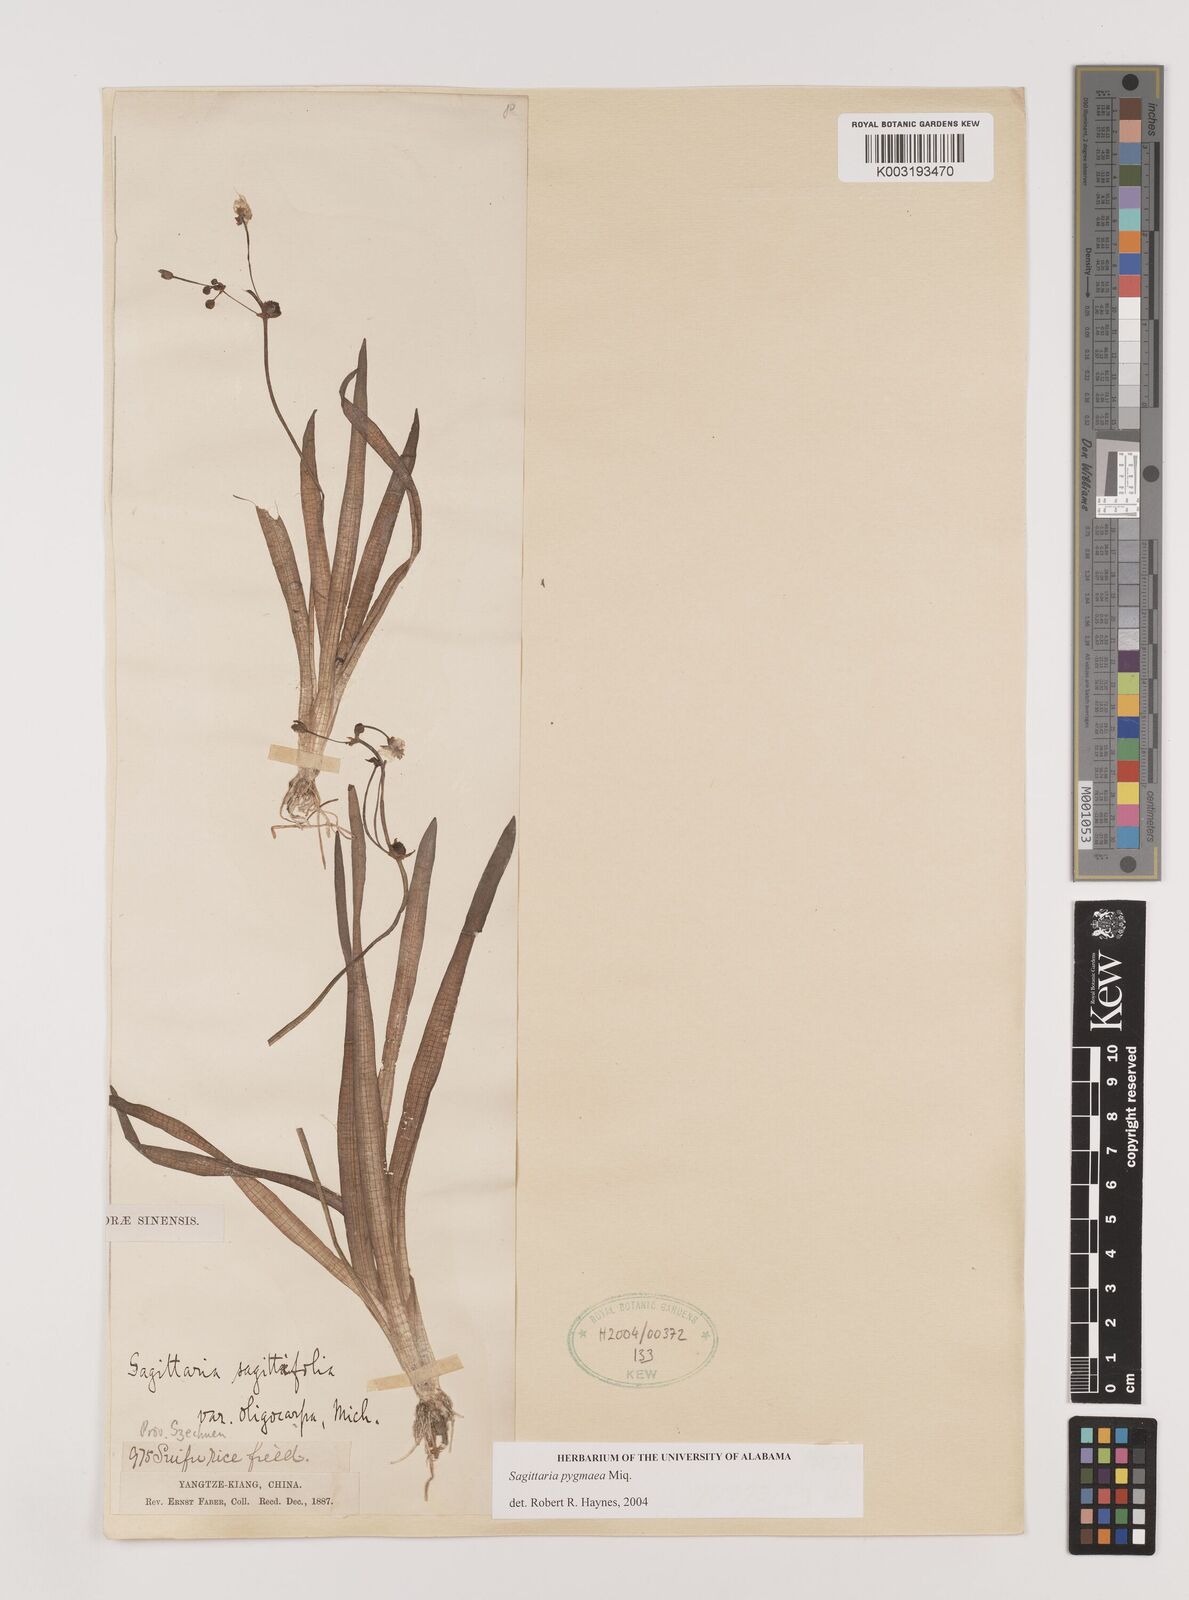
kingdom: Plantae
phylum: Tracheophyta
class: Liliopsida
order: Alismatales
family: Alismataceae
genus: Sagittaria
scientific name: Sagittaria pygmaea
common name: Pygmy arrowhead
